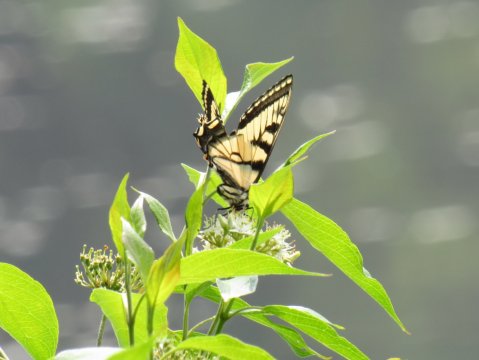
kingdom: Animalia
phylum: Arthropoda
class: Insecta
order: Lepidoptera
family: Papilionidae
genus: Pterourus
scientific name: Pterourus canadensis
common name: Canadian Tiger Swallowtail
